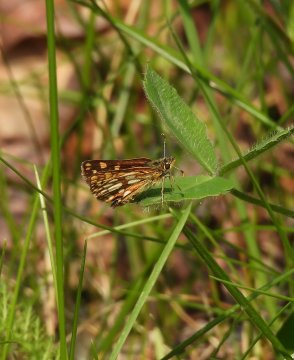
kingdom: Animalia
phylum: Arthropoda
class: Insecta
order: Lepidoptera
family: Hesperiidae
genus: Carterocephalus
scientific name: Carterocephalus palaemon
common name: Chequered Skipper
